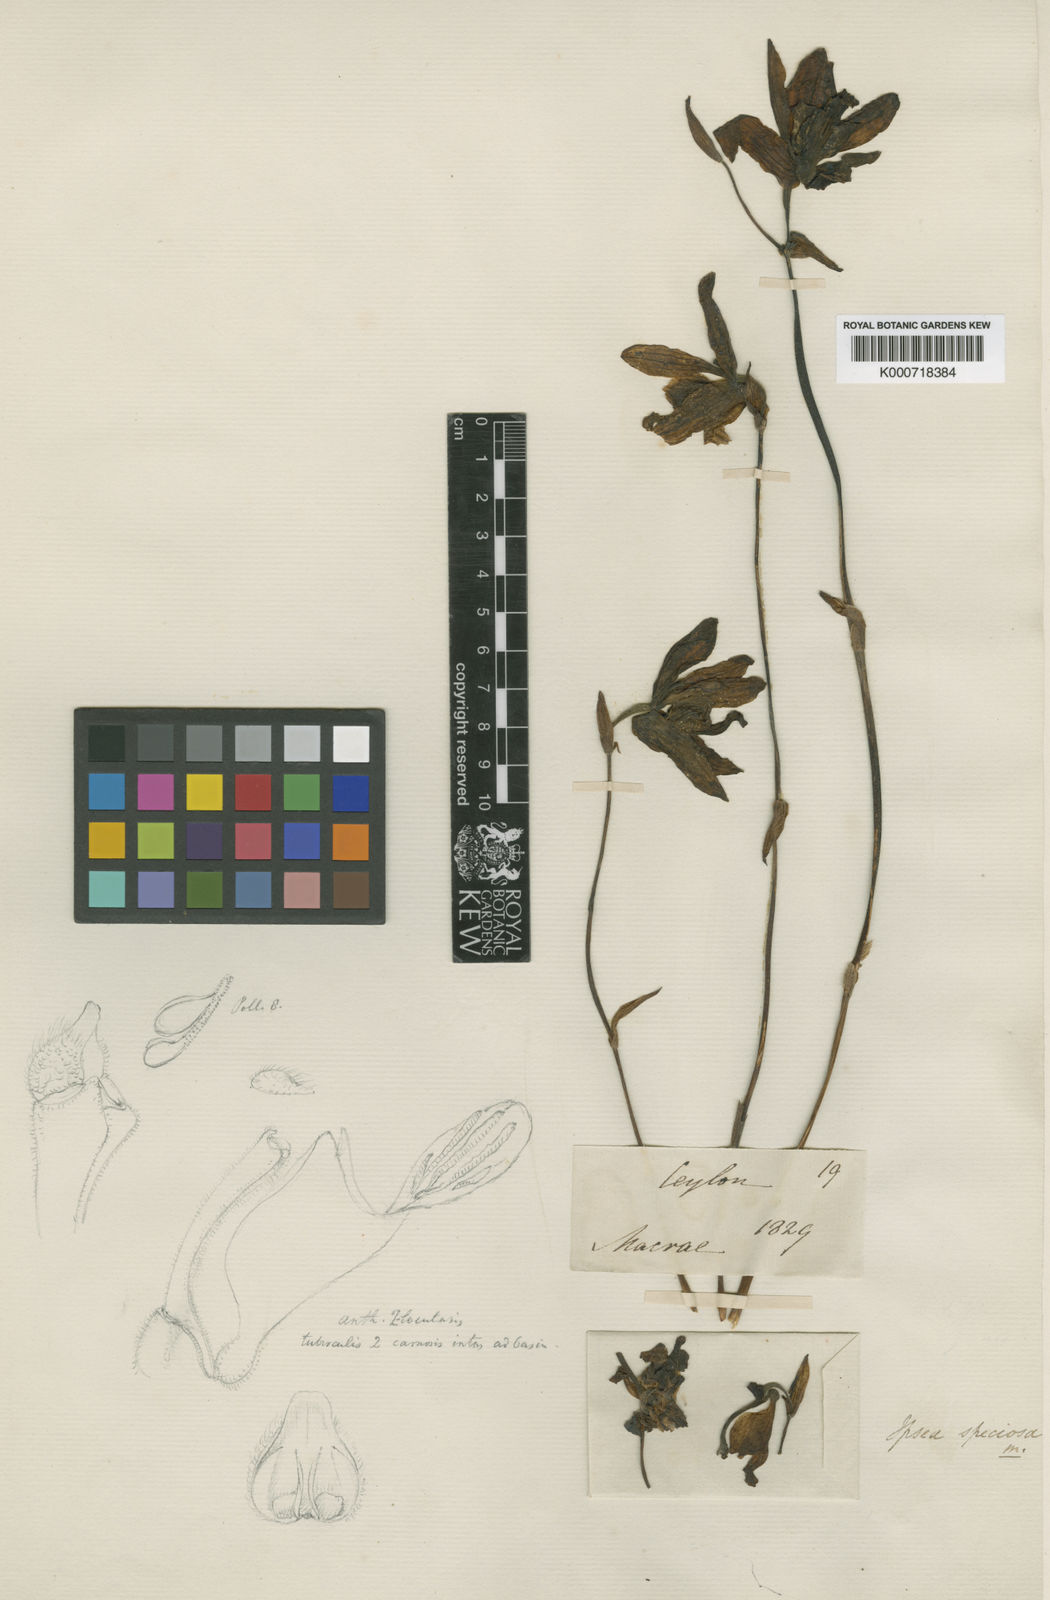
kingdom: Plantae
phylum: Tracheophyta
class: Liliopsida
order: Asparagales
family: Orchidaceae
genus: Ipsea
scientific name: Ipsea speciosa
